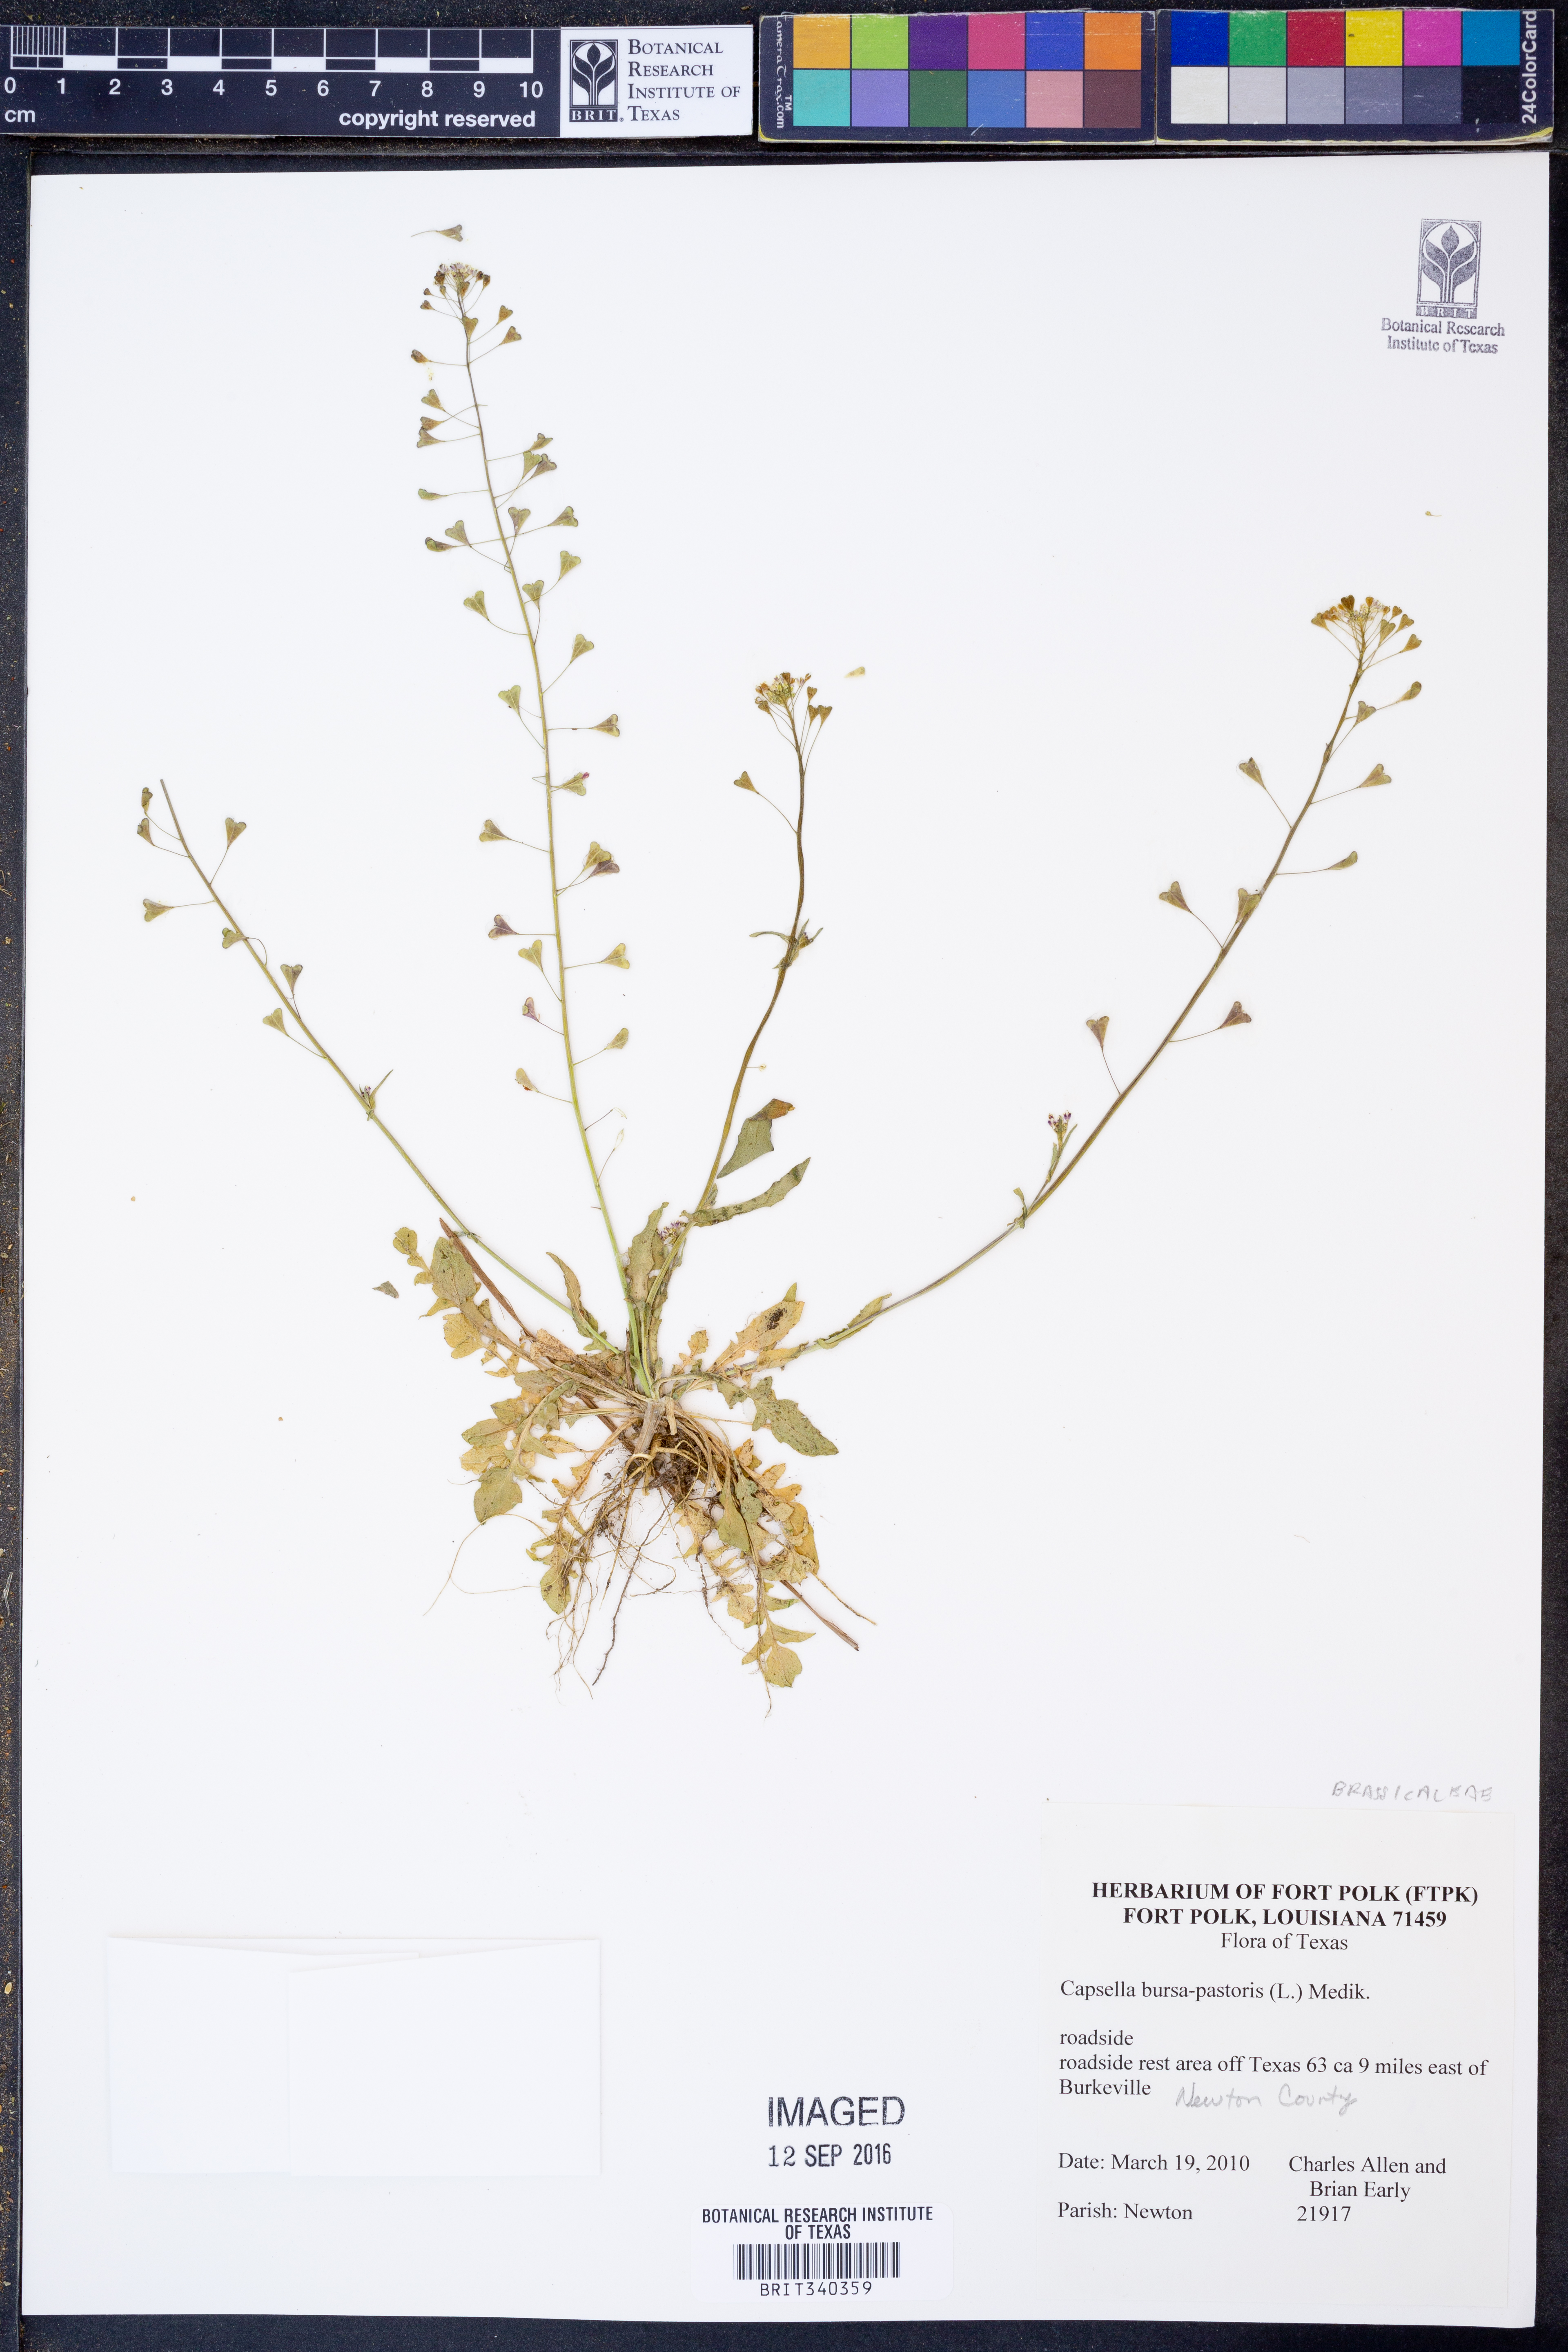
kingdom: Plantae
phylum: Tracheophyta
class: Magnoliopsida
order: Brassicales
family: Brassicaceae
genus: Capsella
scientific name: Capsella bursa-pastoris
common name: Shepherd's purse
